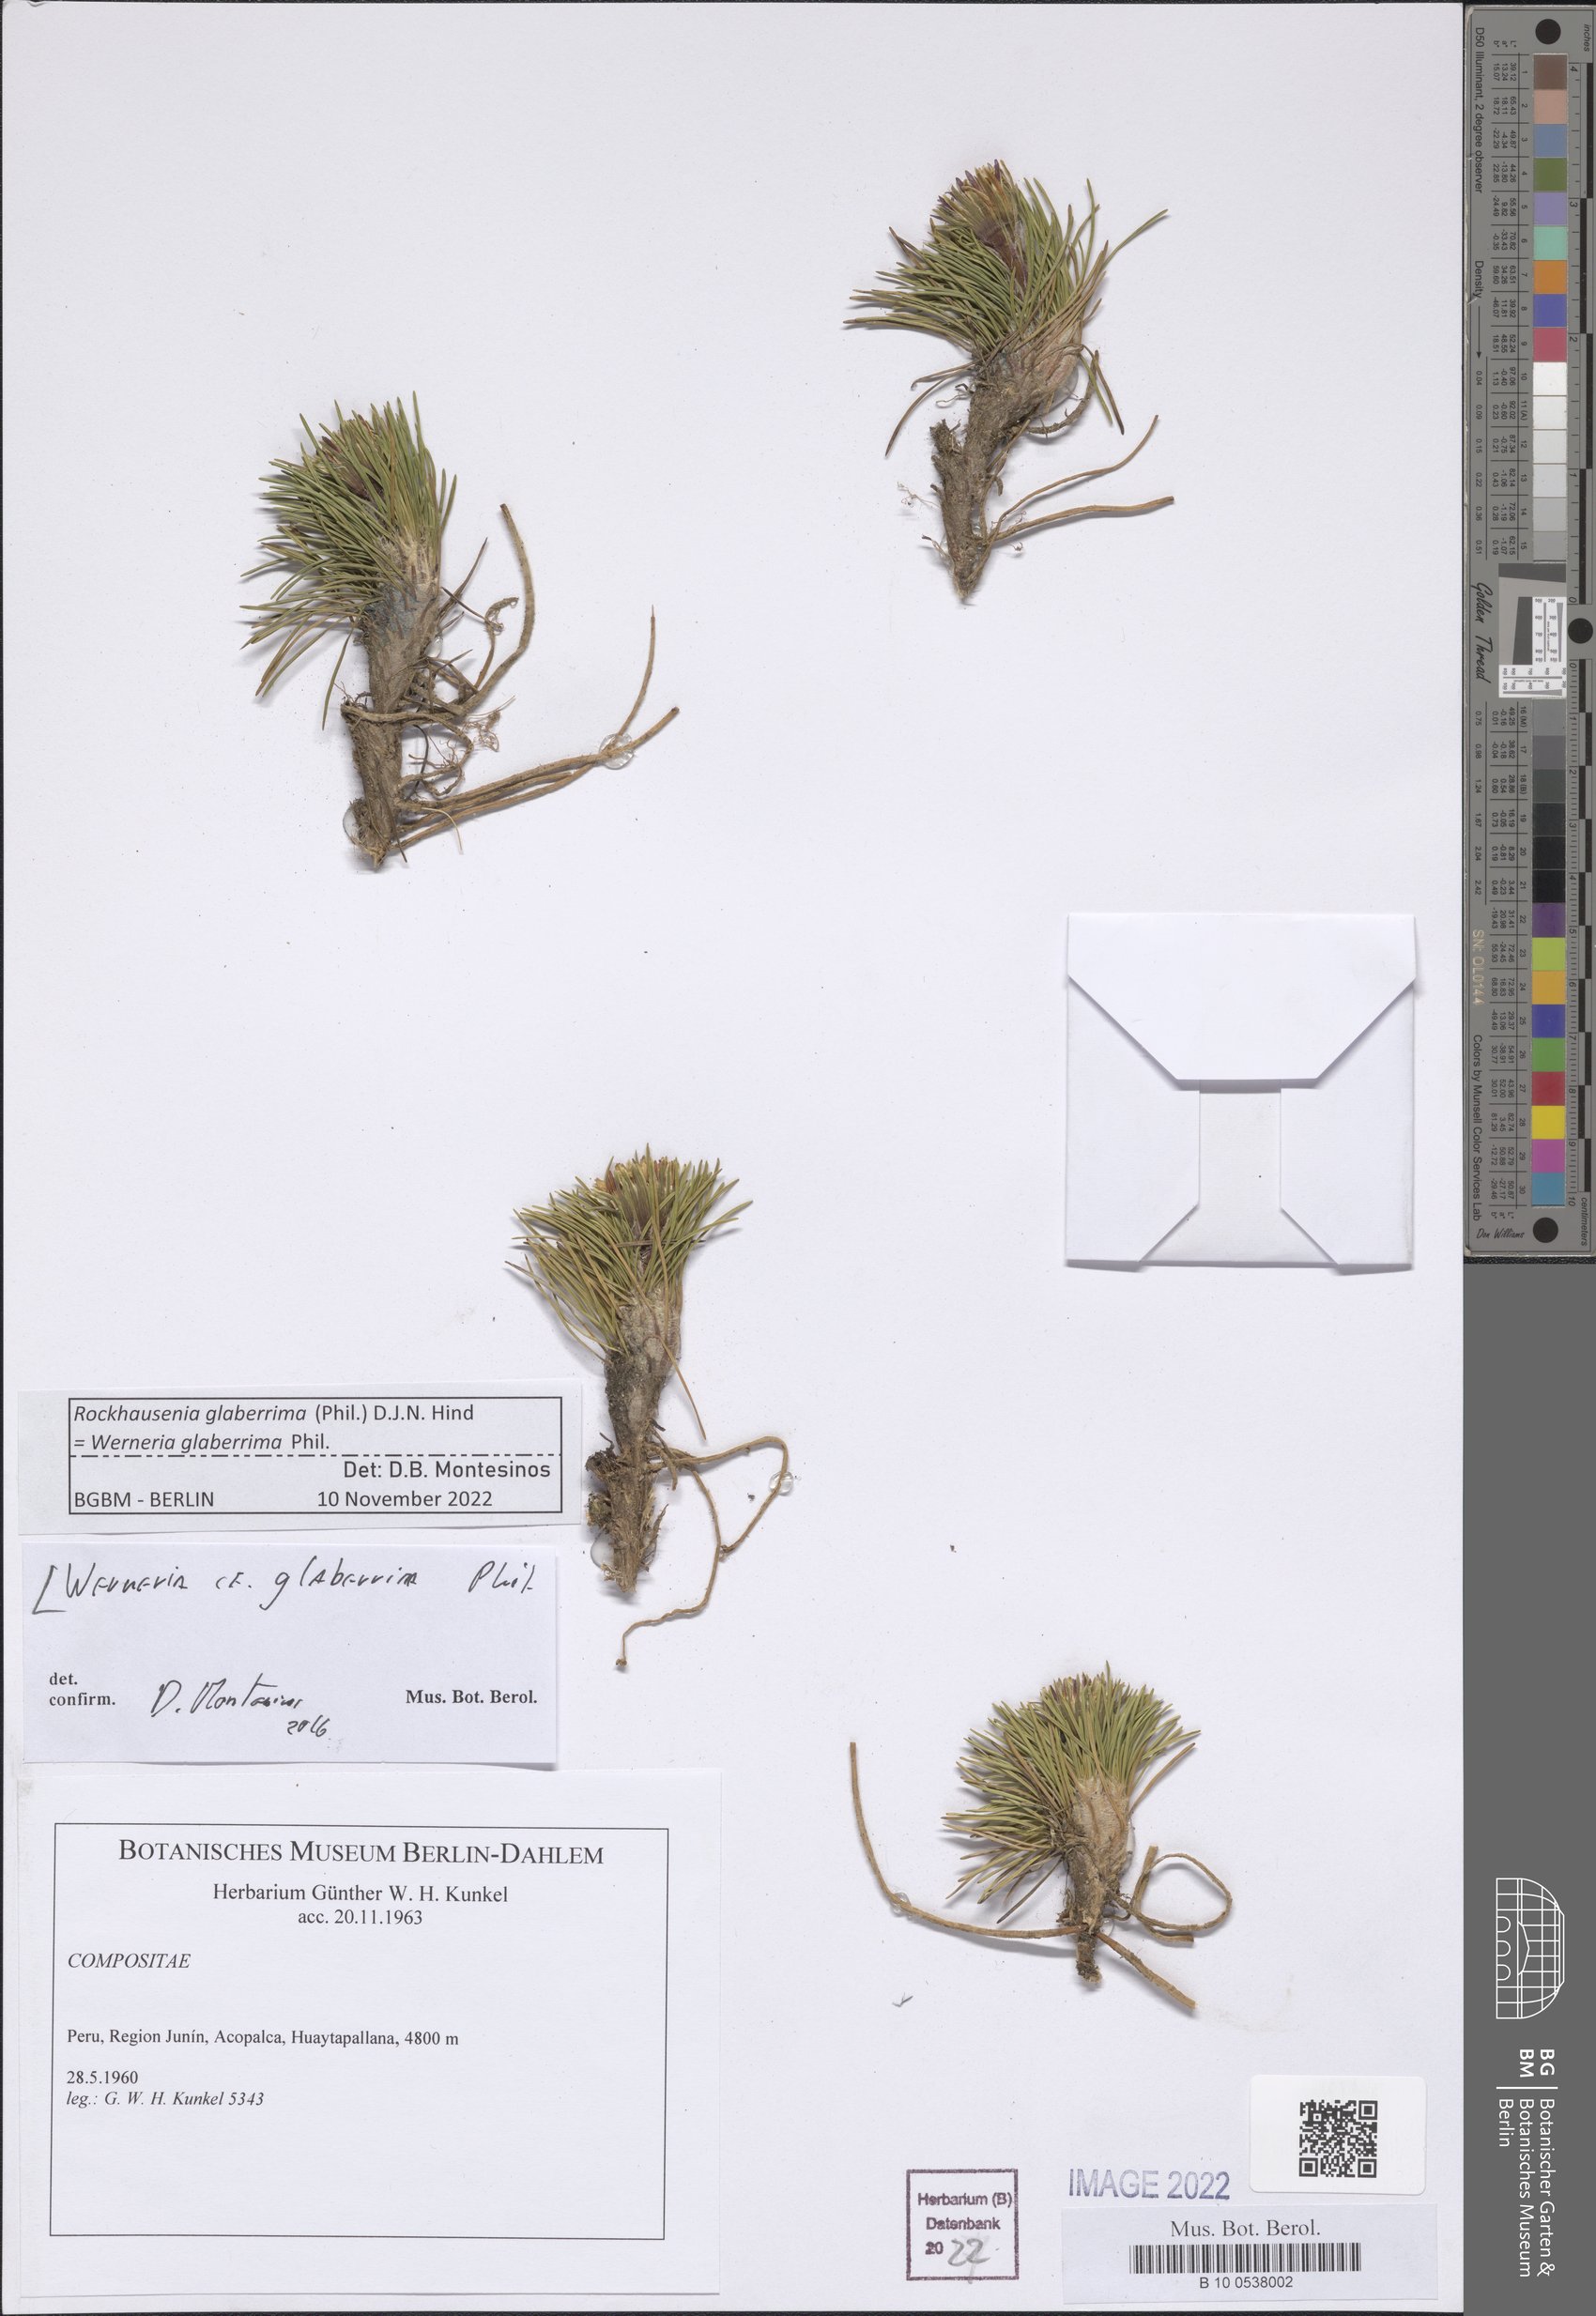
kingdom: Plantae
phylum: Tracheophyta
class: Magnoliopsida
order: Asterales
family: Asteraceae
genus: Rockhausenia
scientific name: Rockhausenia glaberrima
